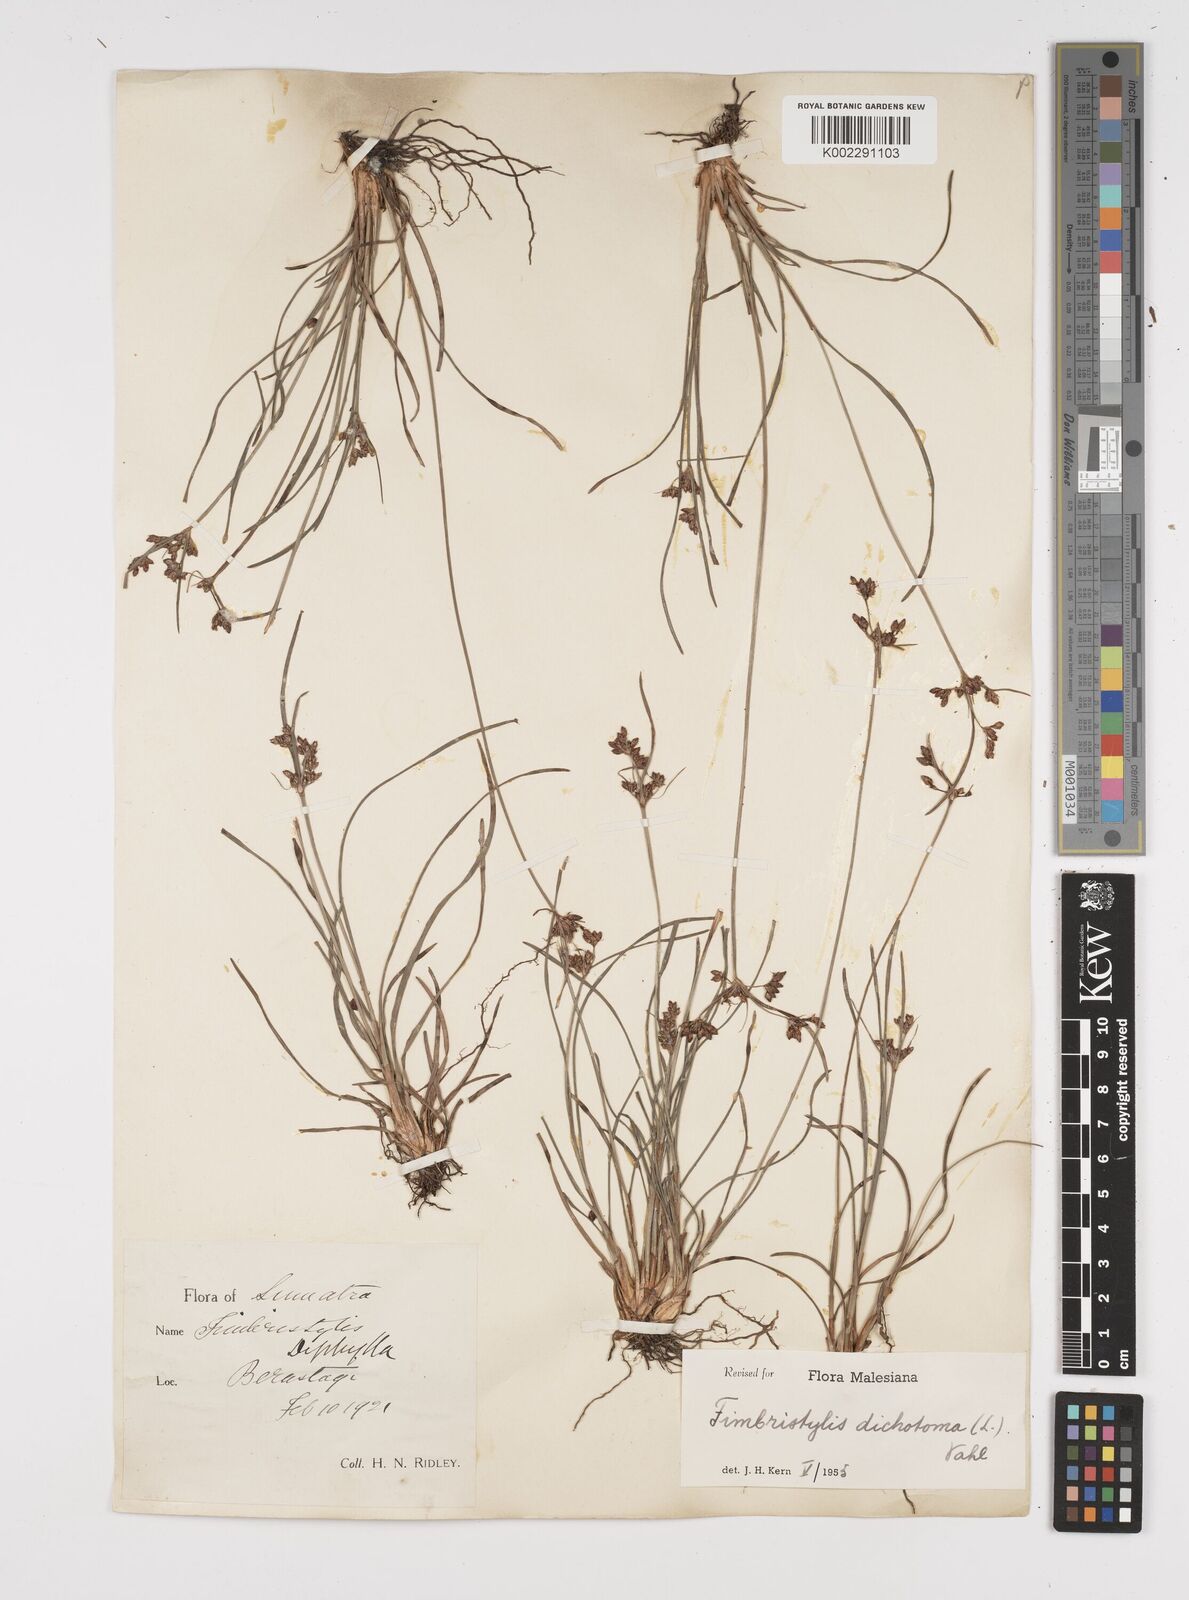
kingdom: Plantae
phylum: Tracheophyta
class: Liliopsida
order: Poales
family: Cyperaceae
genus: Fimbristylis
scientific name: Fimbristylis dichotoma
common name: Forked fimbry
